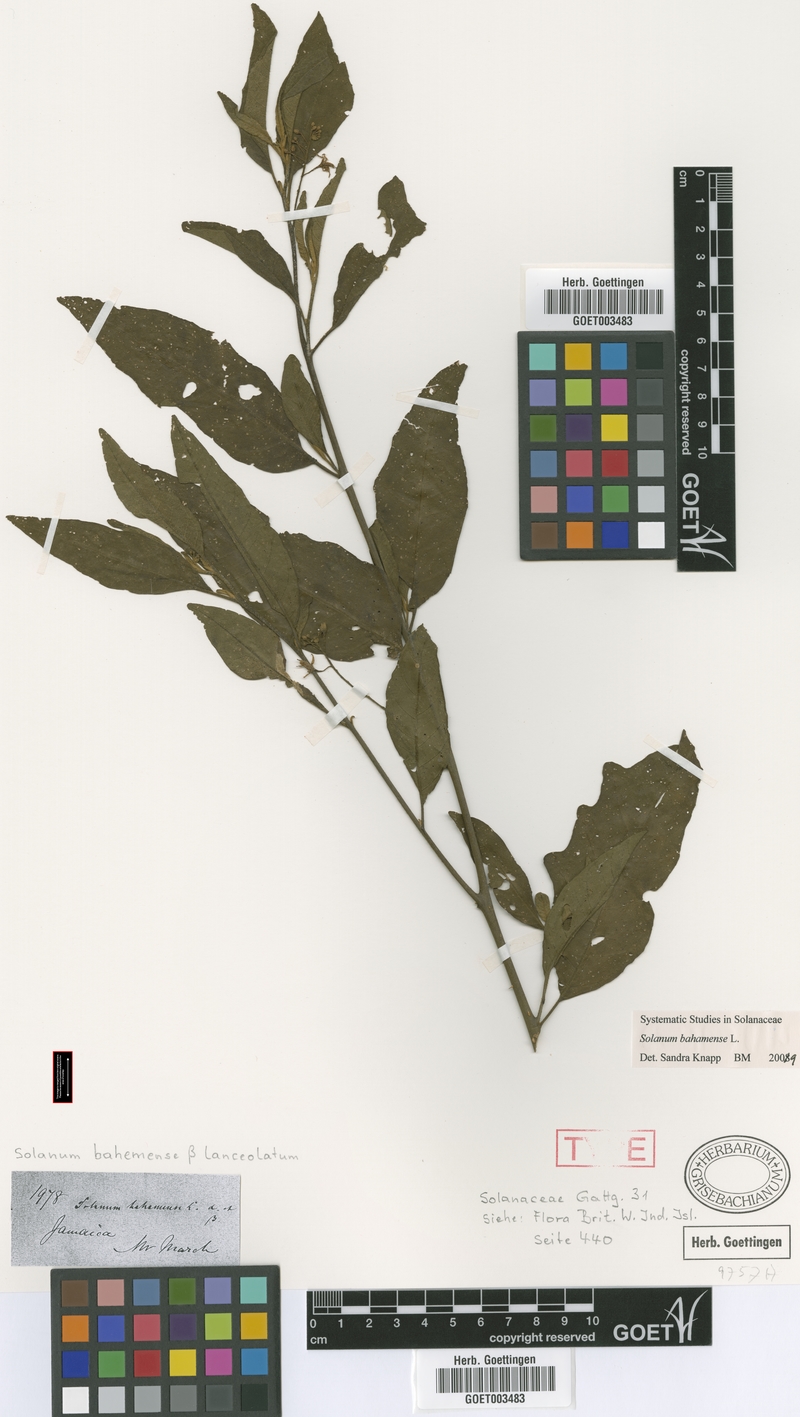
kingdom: Plantae
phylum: Tracheophyta
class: Magnoliopsida
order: Solanales
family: Solanaceae
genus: Solanum
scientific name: Solanum bahamense
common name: Canker-berry
